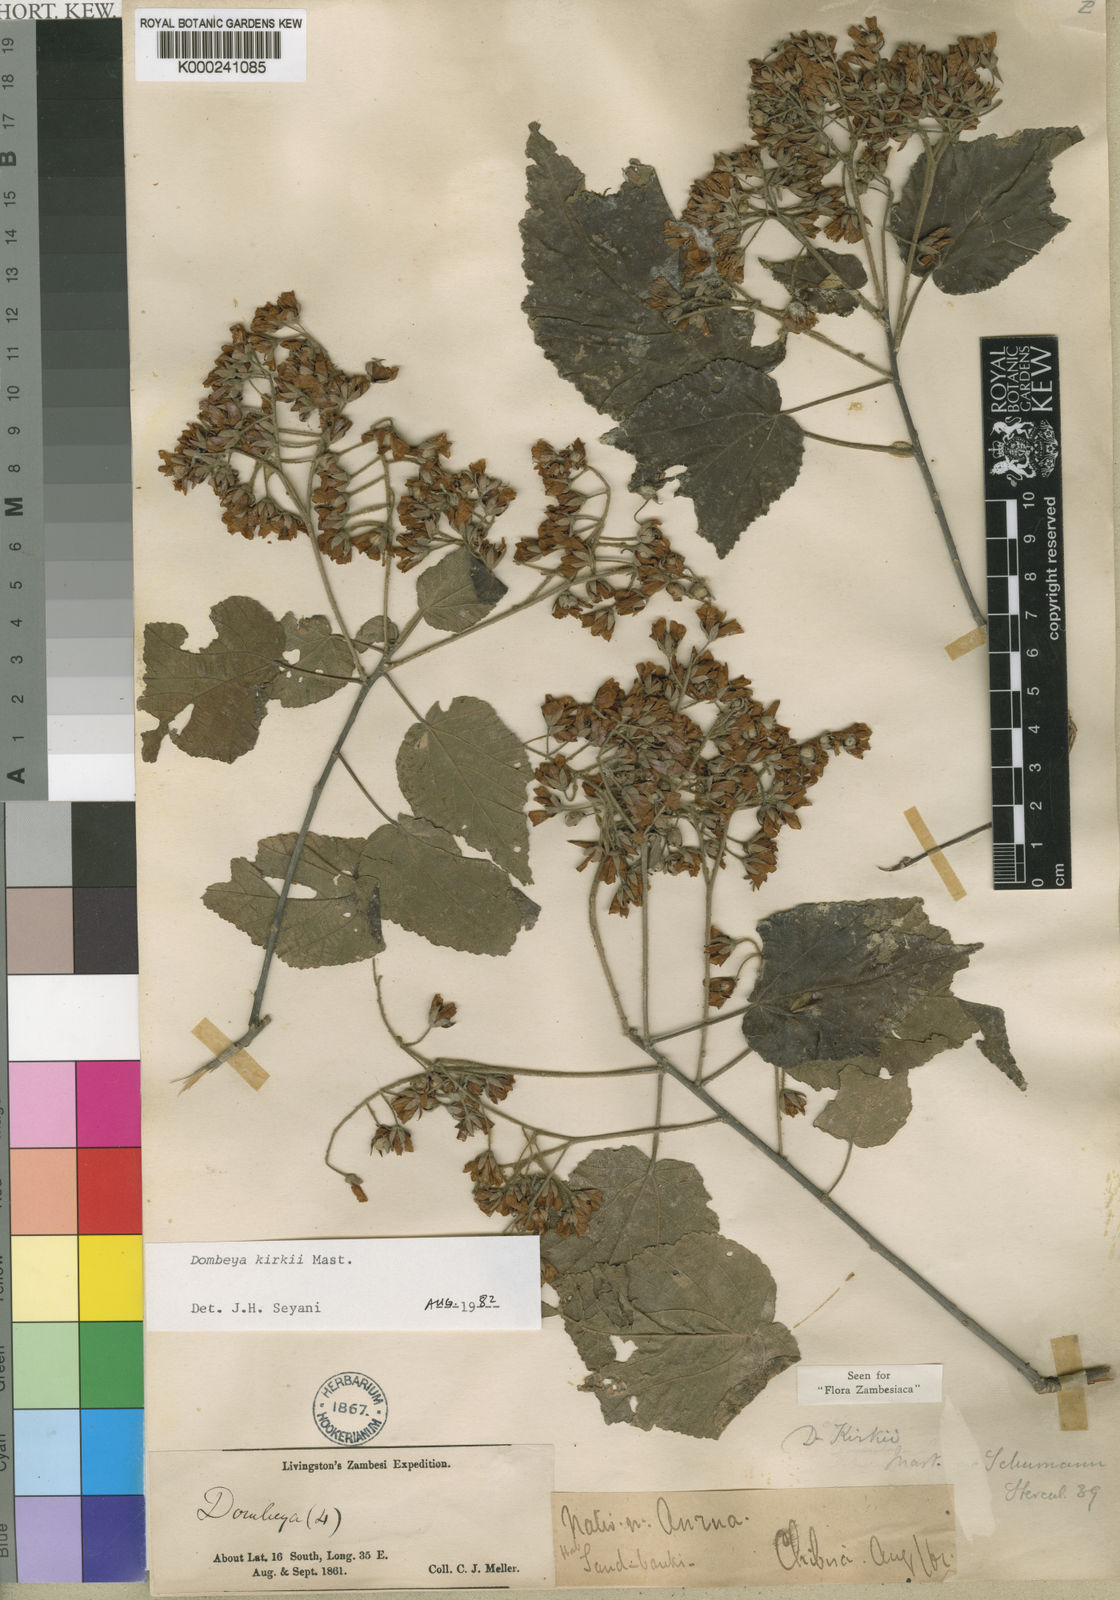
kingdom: Plantae
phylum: Tracheophyta
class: Magnoliopsida
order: Malvales
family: Malvaceae
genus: Dombeya
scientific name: Dombeya kirkii
